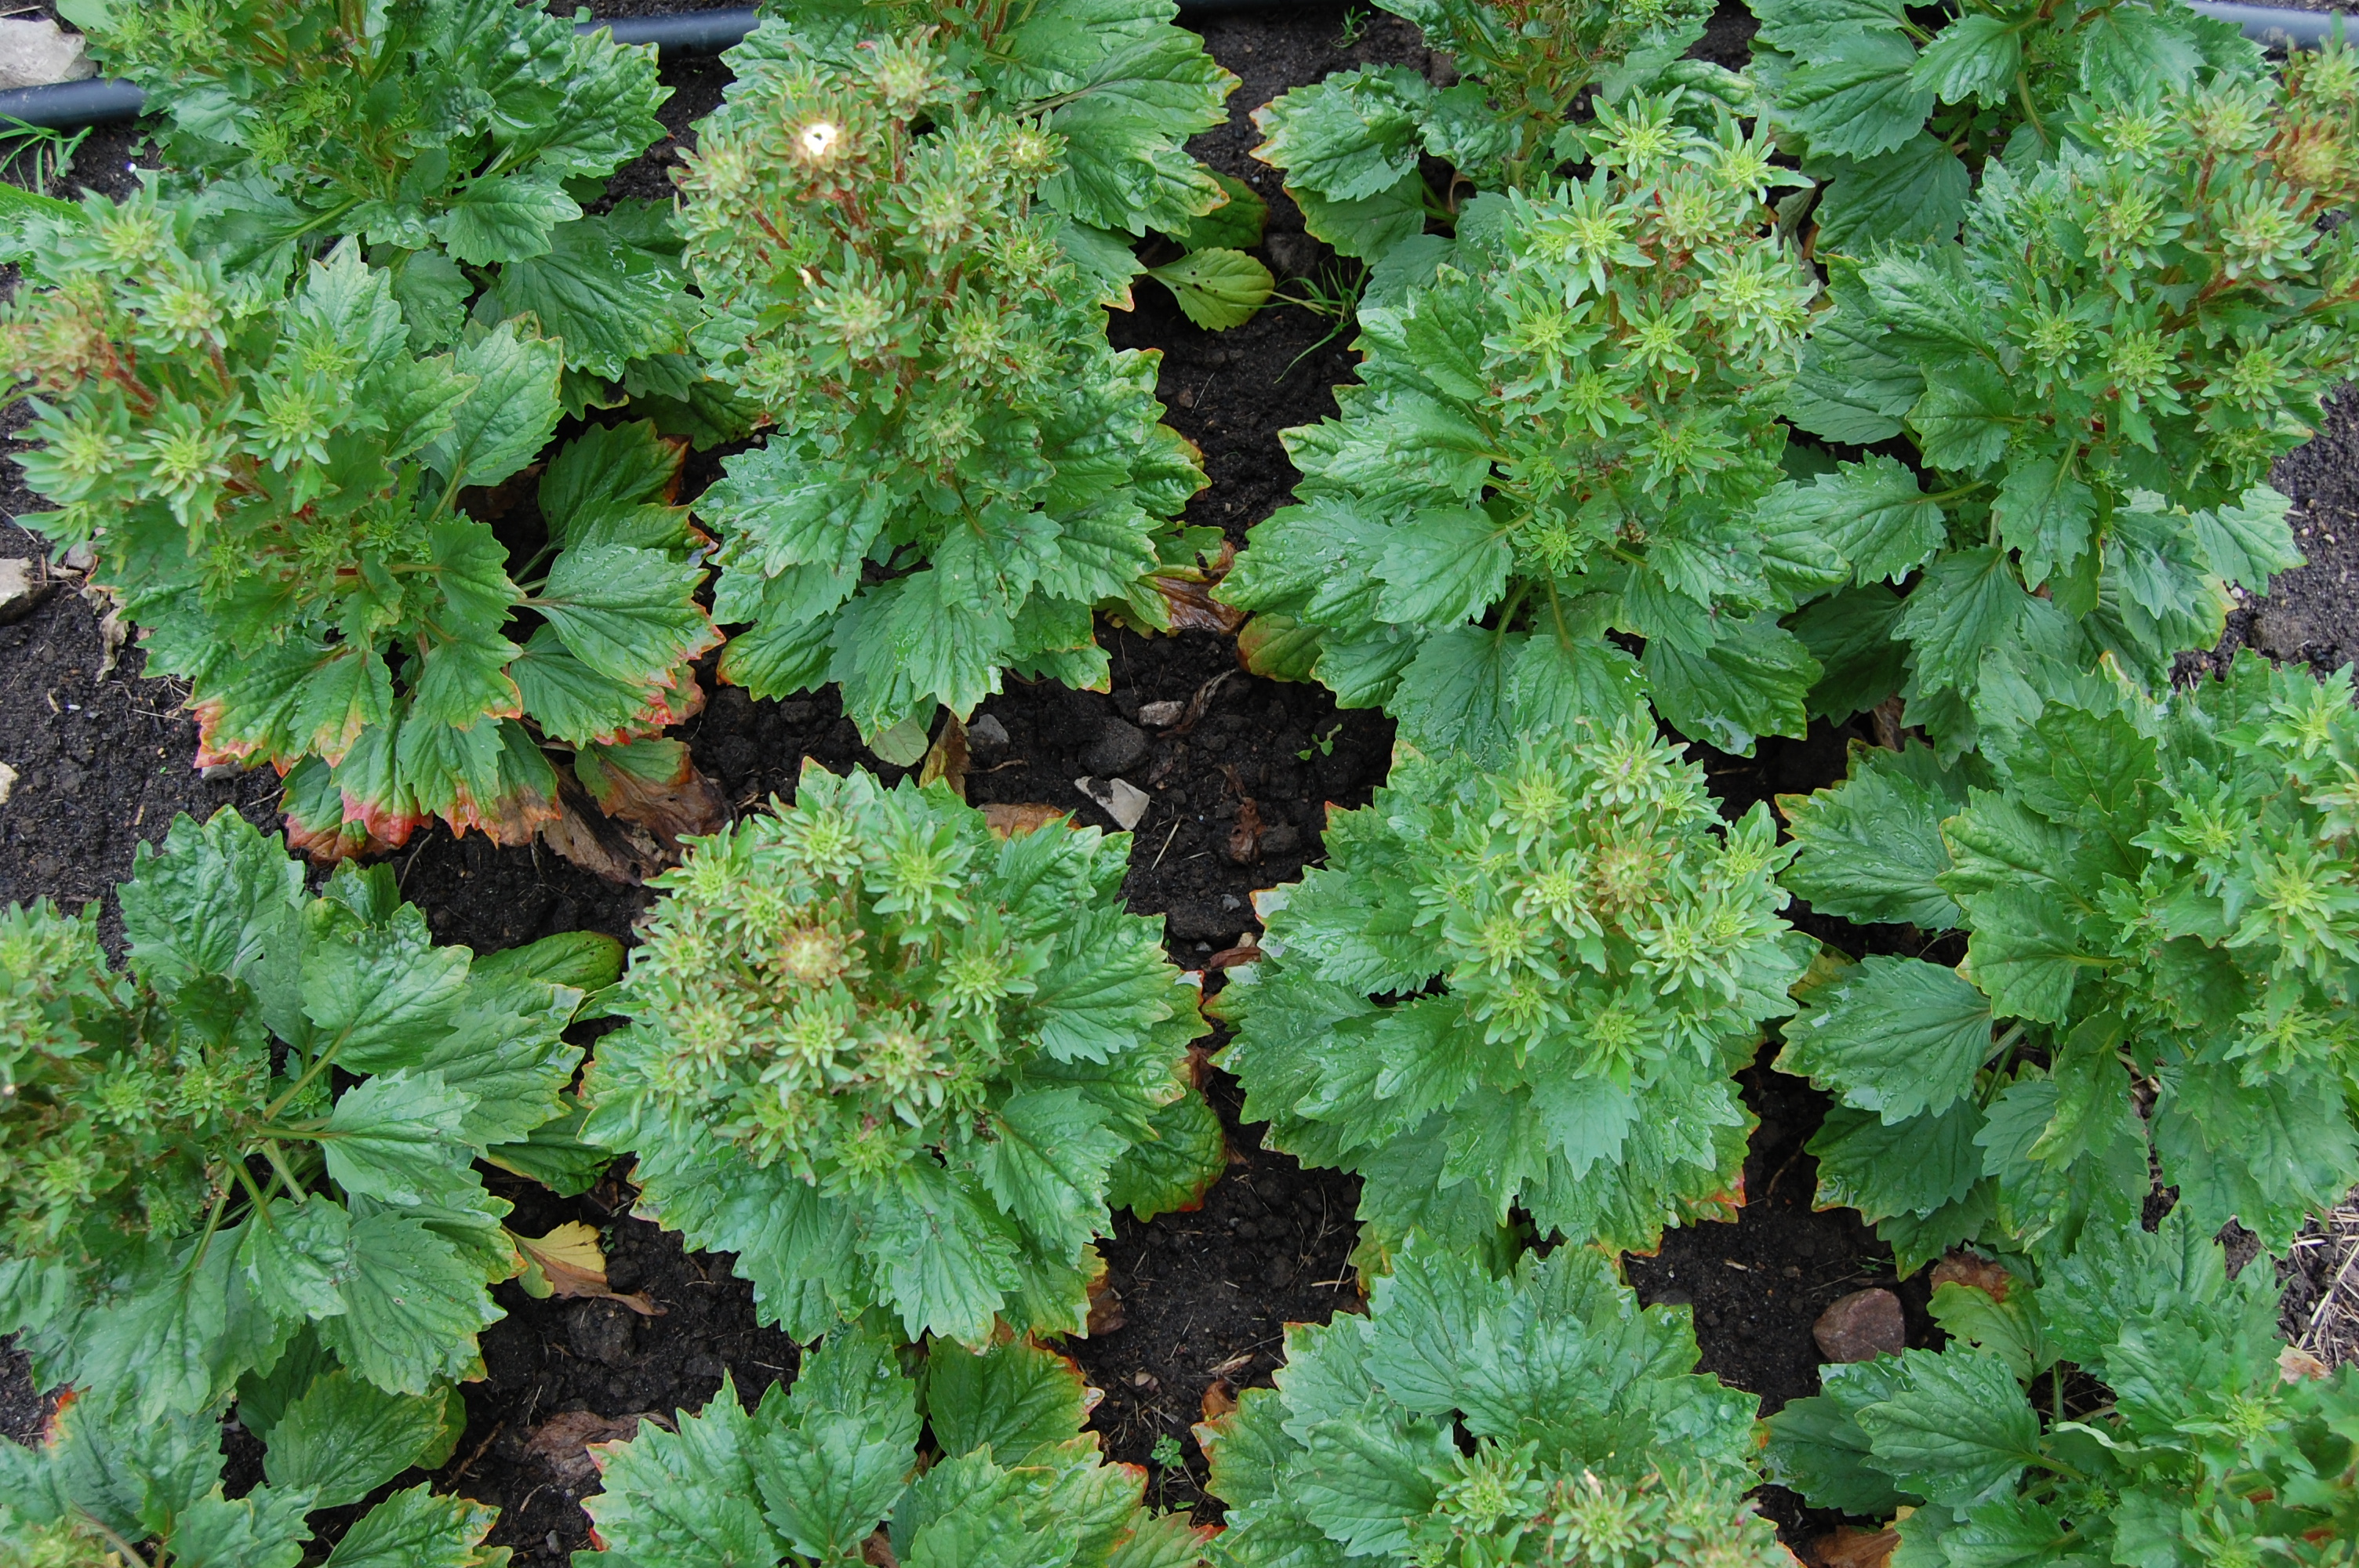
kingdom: Plantae
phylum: Tracheophyta
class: Magnoliopsida
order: Asterales
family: Asteraceae
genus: Callistephus
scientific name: Callistephus chinensis
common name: China aster
